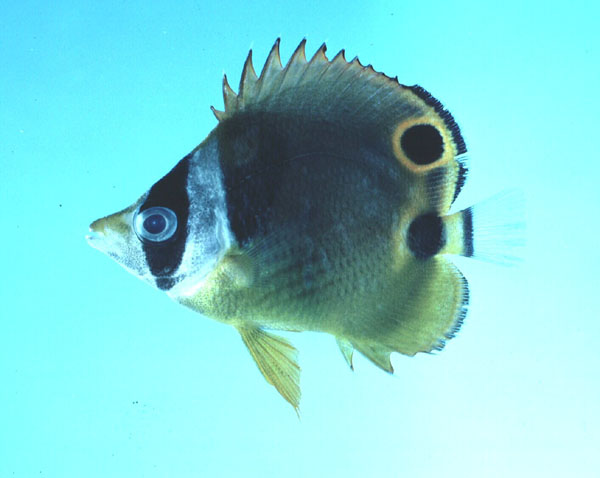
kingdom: Animalia
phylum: Chordata
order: Perciformes
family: Chaetodontidae
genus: Chaetodon
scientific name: Chaetodon lunula
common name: Raccoon butterflyfish
